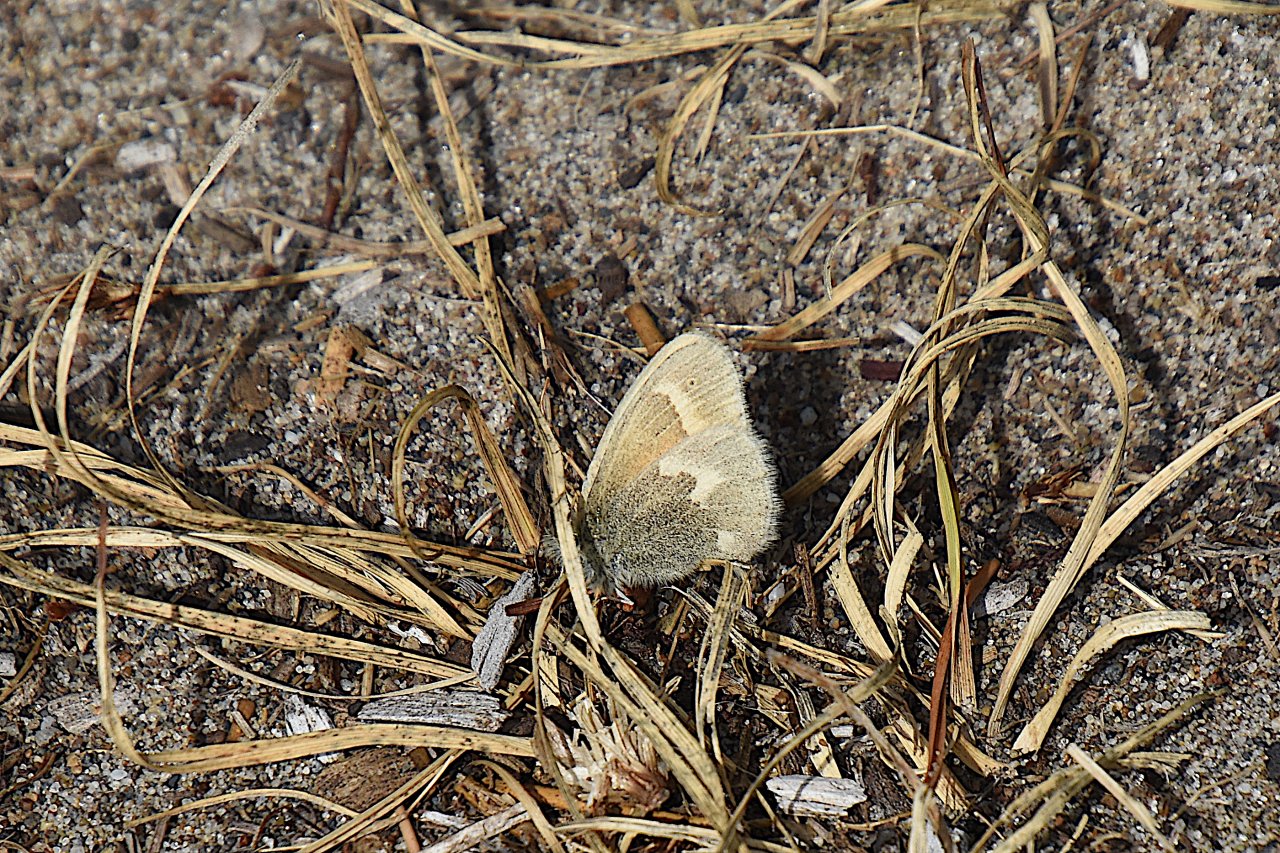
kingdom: Animalia
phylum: Arthropoda
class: Insecta
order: Lepidoptera
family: Nymphalidae
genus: Coenonympha
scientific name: Coenonympha tullia
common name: Large Heath
